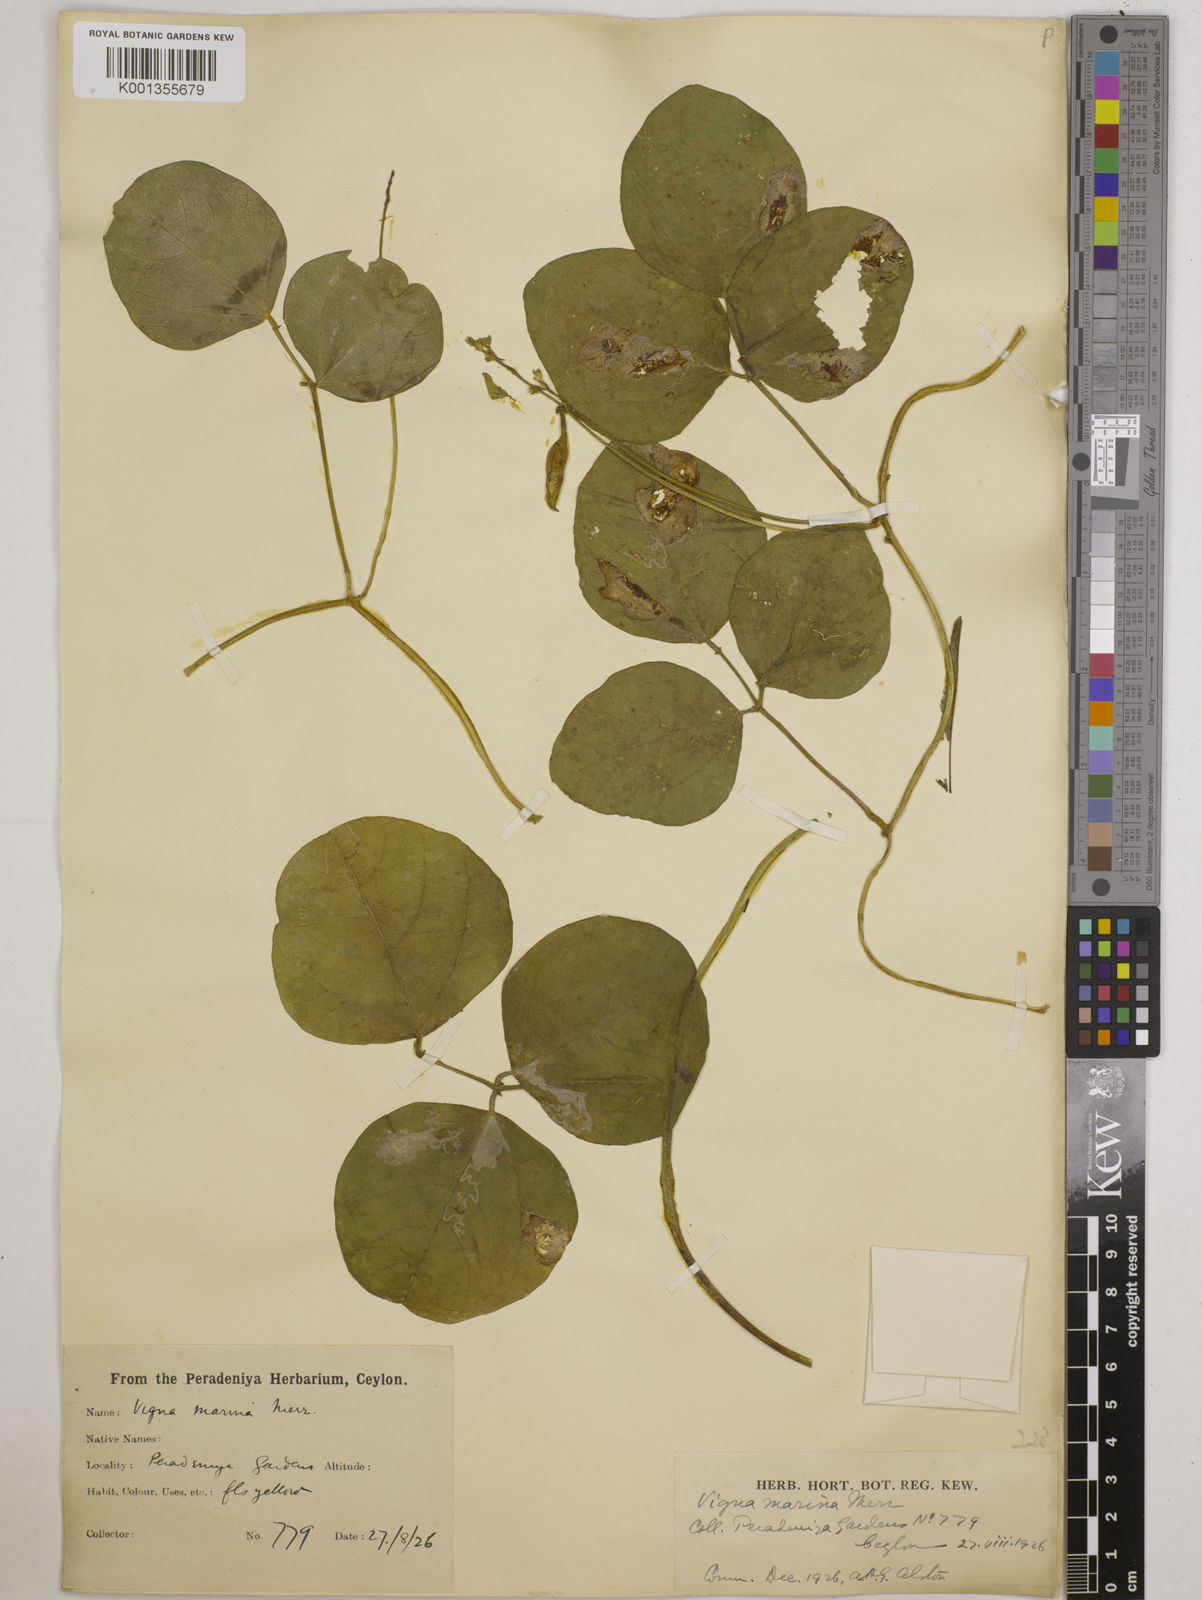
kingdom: Plantae
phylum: Tracheophyta
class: Magnoliopsida
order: Fabales
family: Fabaceae
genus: Vigna
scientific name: Vigna marina
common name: Dune-bean
